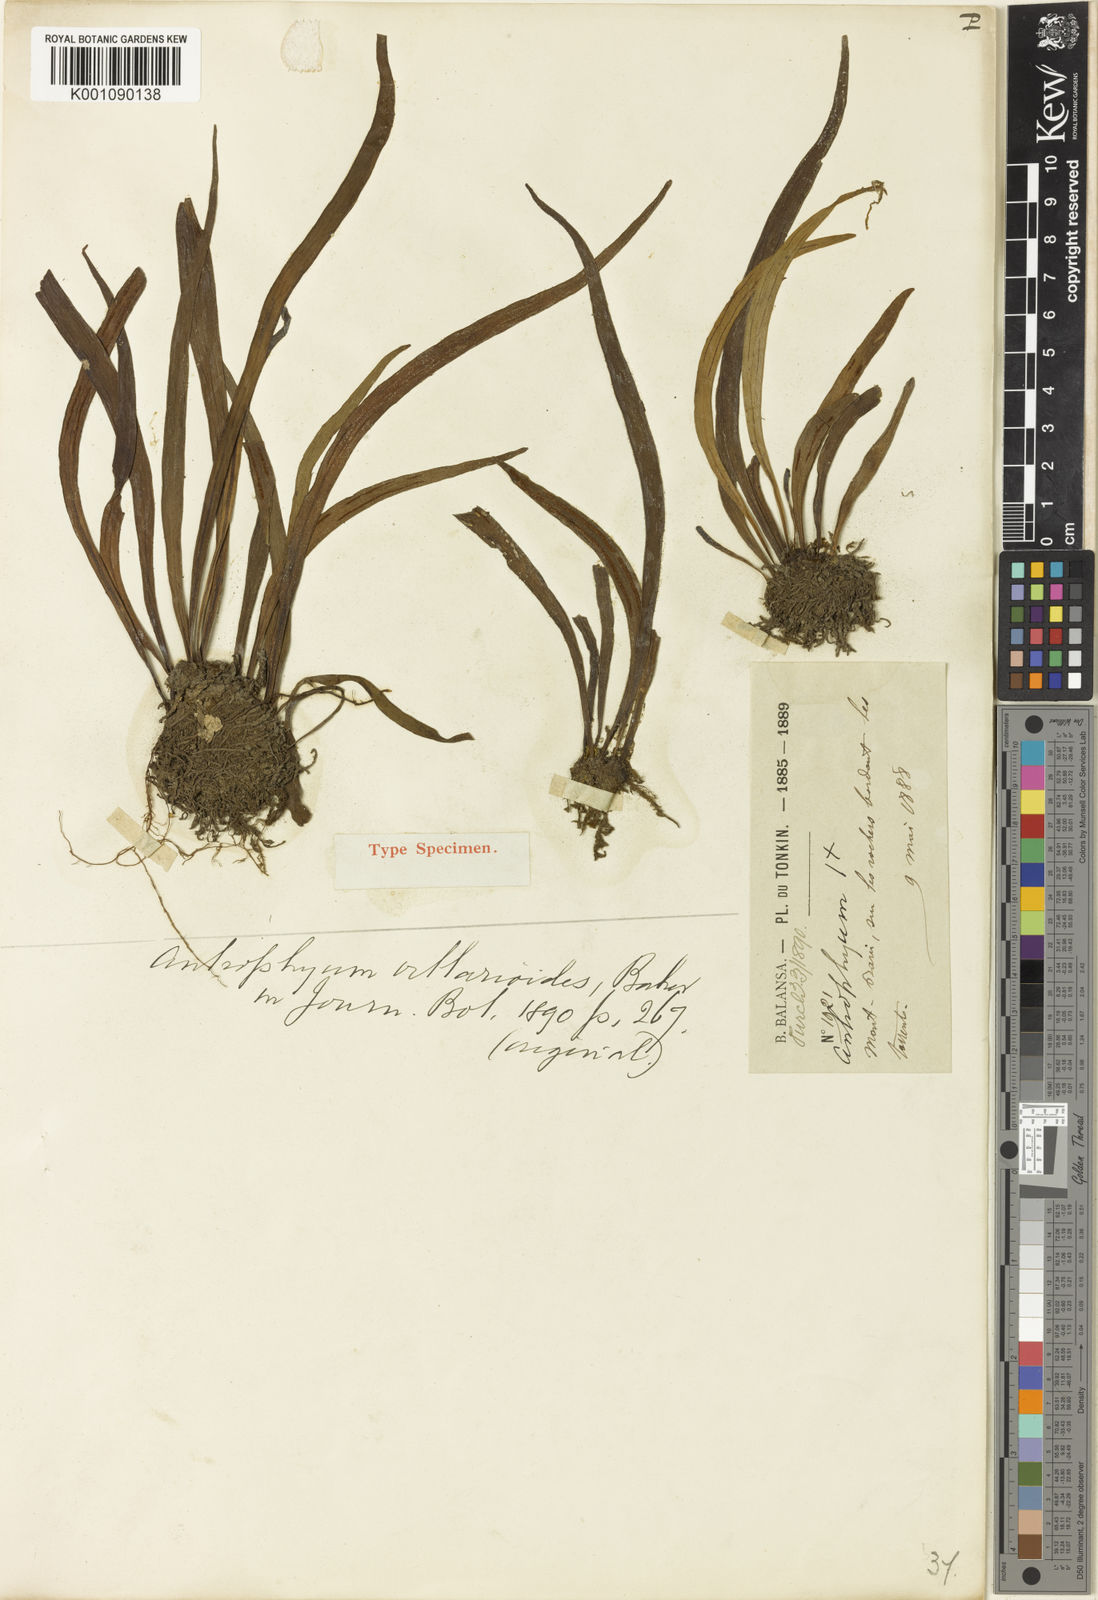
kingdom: Plantae
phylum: Tracheophyta
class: Polypodiopsida
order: Polypodiales
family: Pteridaceae
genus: Antrophyum
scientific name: Antrophyum vittarioides
